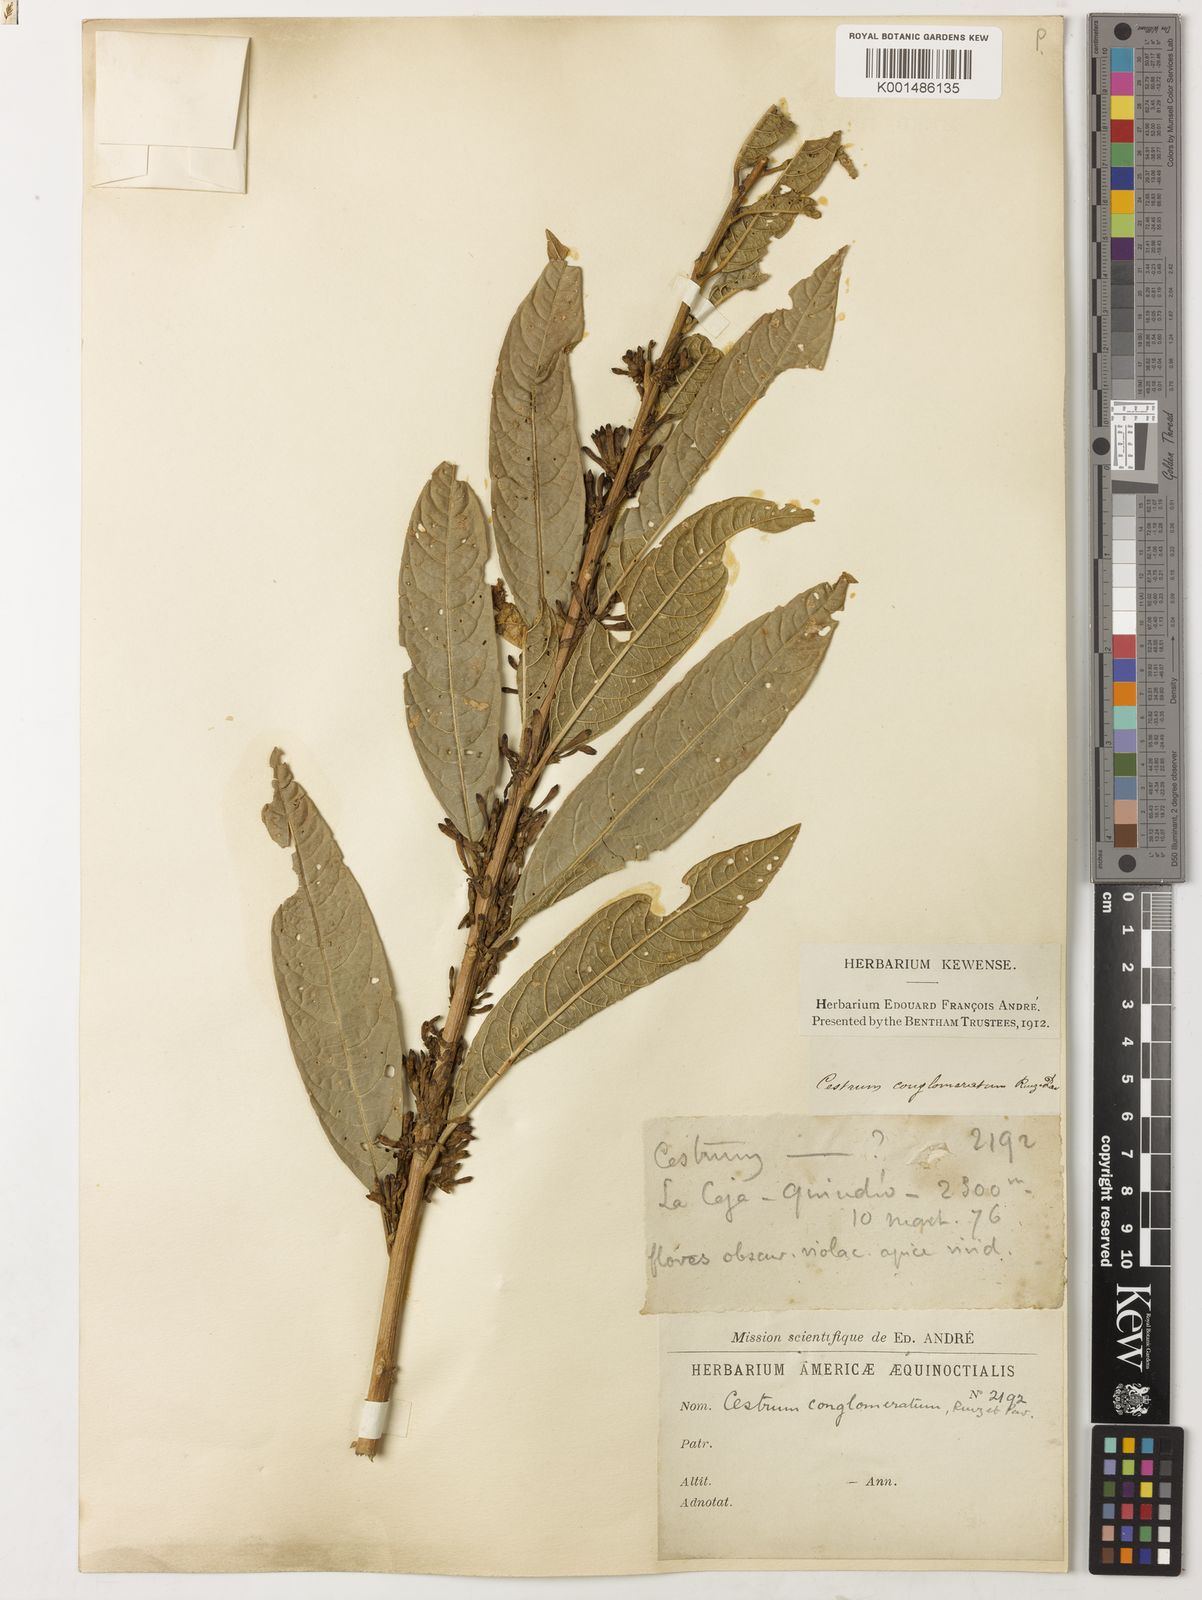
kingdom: Plantae
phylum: Tracheophyta
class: Magnoliopsida
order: Solanales
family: Solanaceae
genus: Cestrum
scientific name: Cestrum conglomeratum
